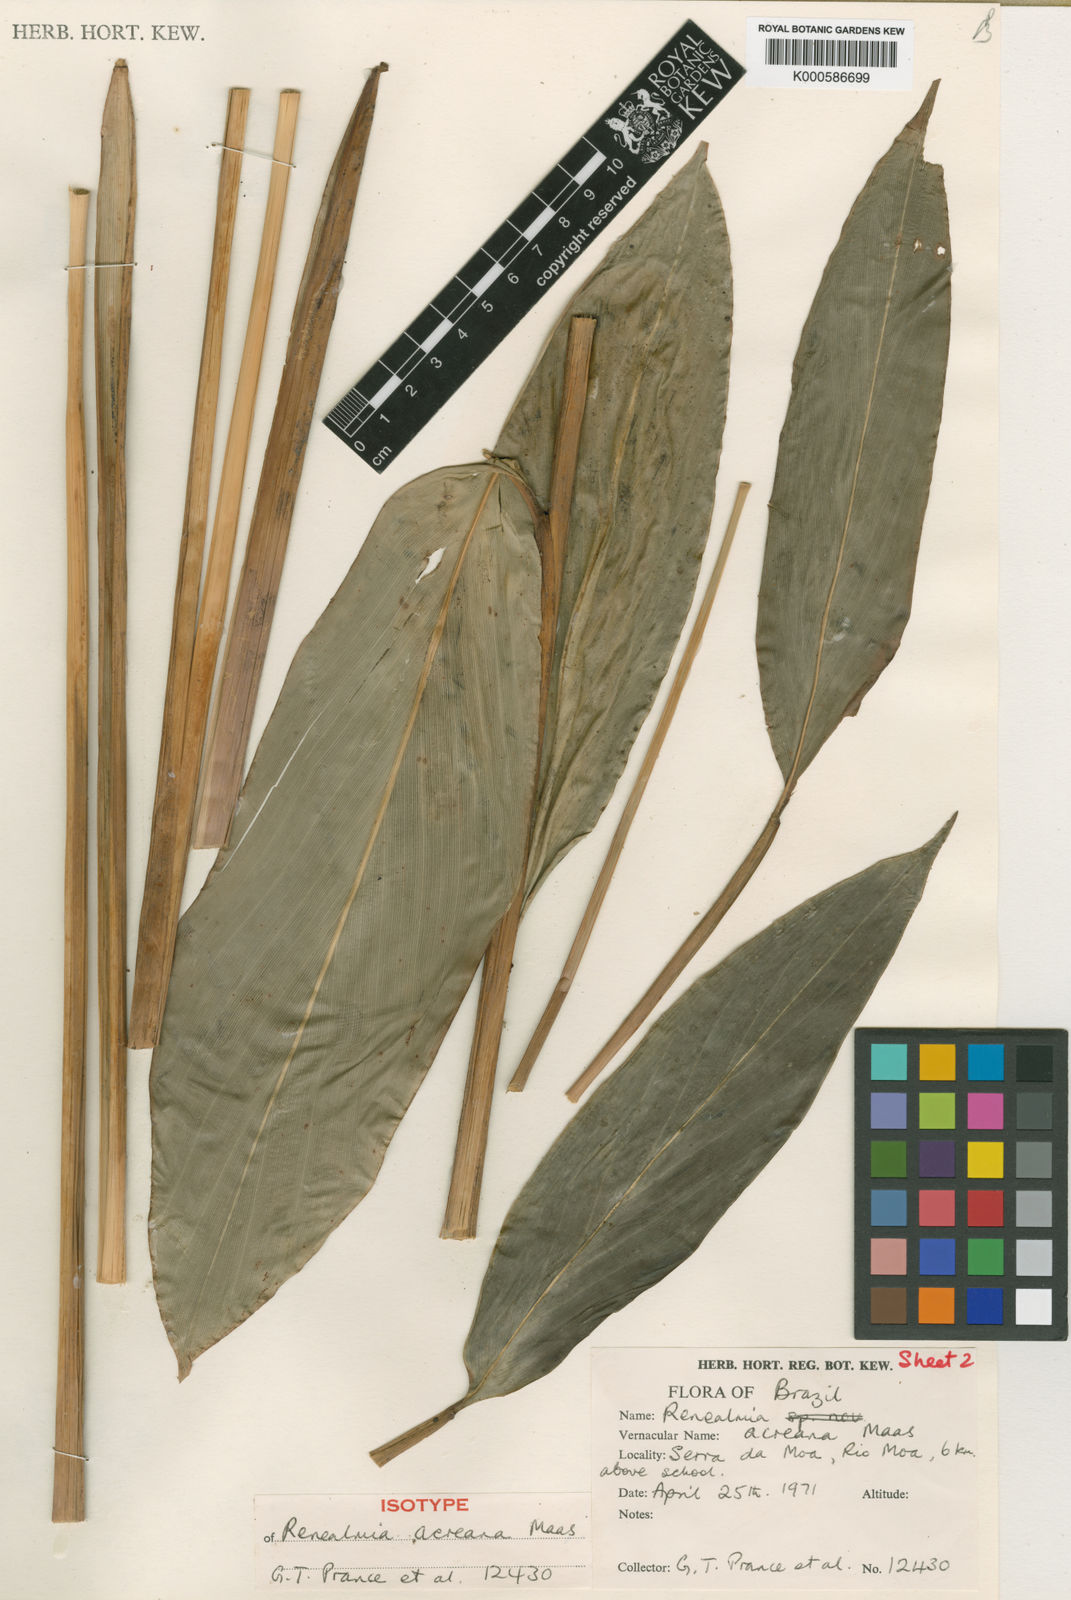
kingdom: Plantae
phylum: Tracheophyta
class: Liliopsida
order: Zingiberales
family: Zingiberaceae
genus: Renealmia
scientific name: Renealmia acreana
